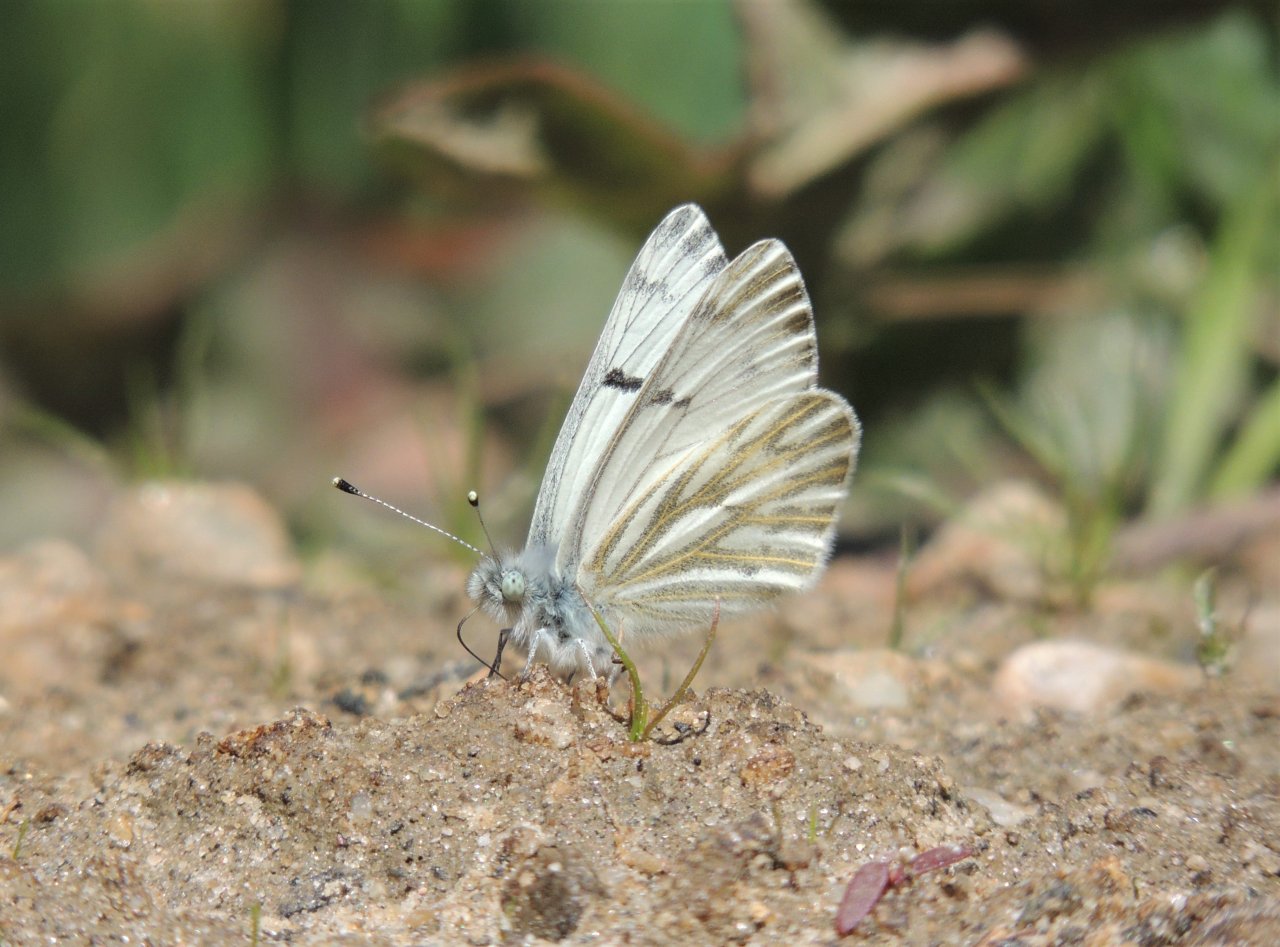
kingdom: Animalia
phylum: Arthropoda
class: Insecta
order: Lepidoptera
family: Pieridae
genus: Pontia
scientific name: Pontia sisymbrii
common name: Spring White
